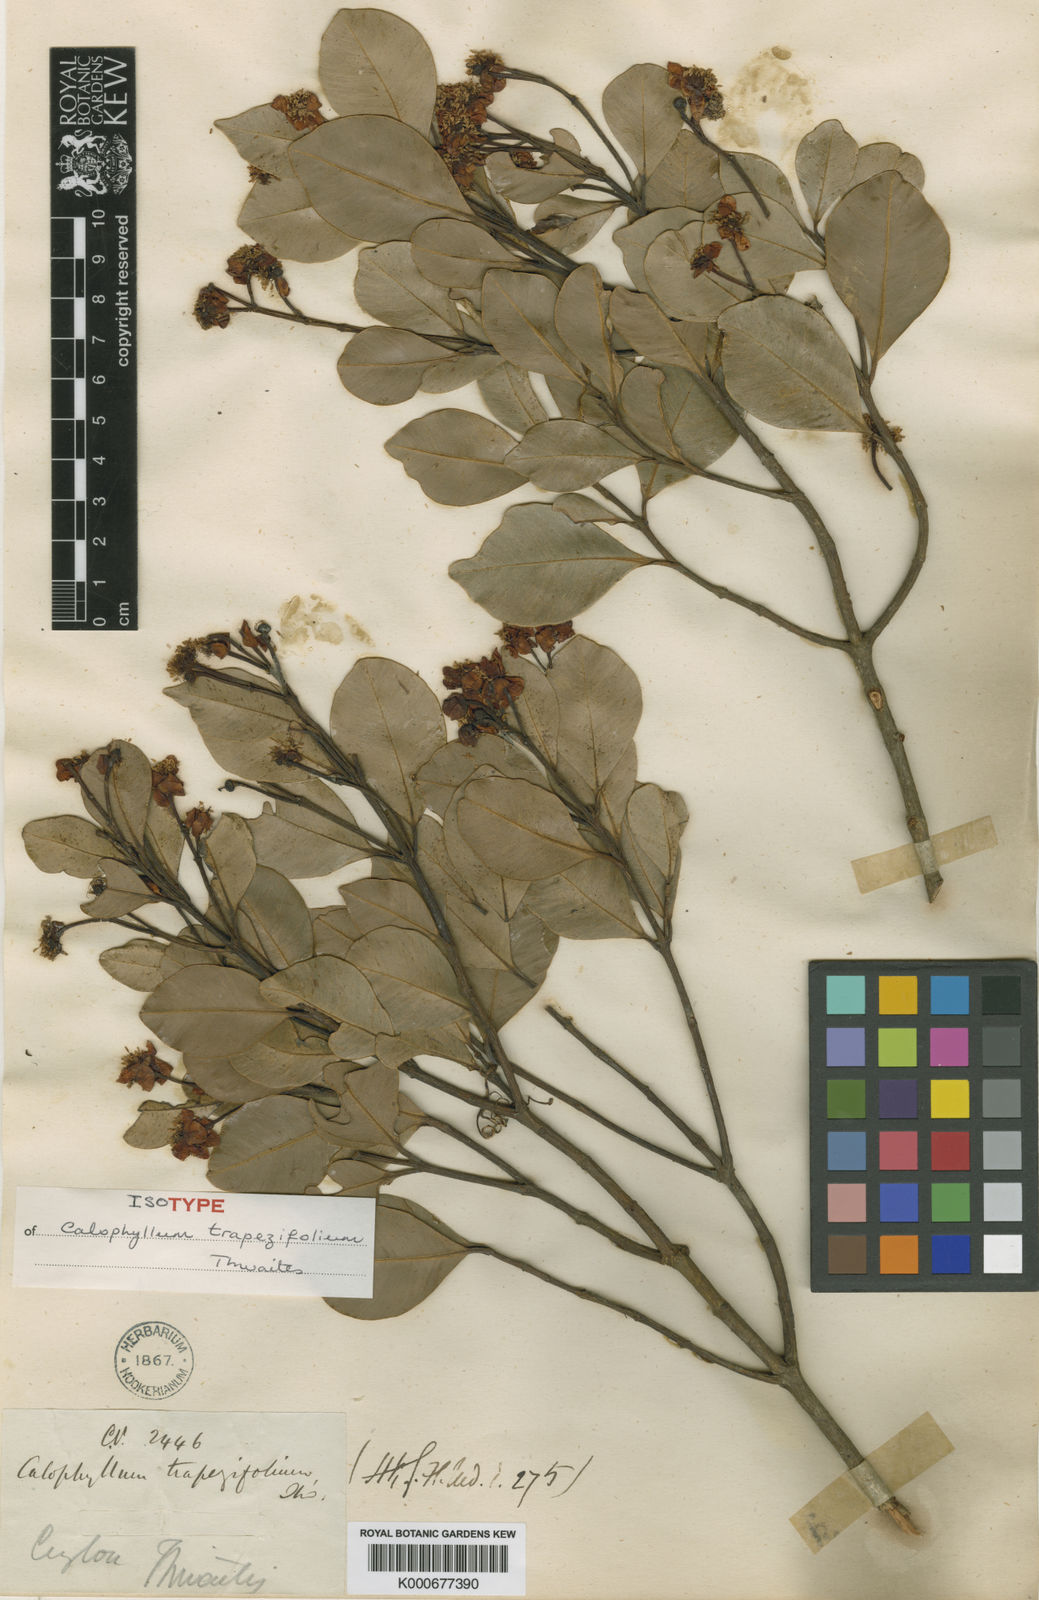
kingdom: Plantae
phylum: Tracheophyta
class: Magnoliopsida
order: Malpighiales
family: Calophyllaceae
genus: Calophyllum
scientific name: Calophyllum trapezifolium
